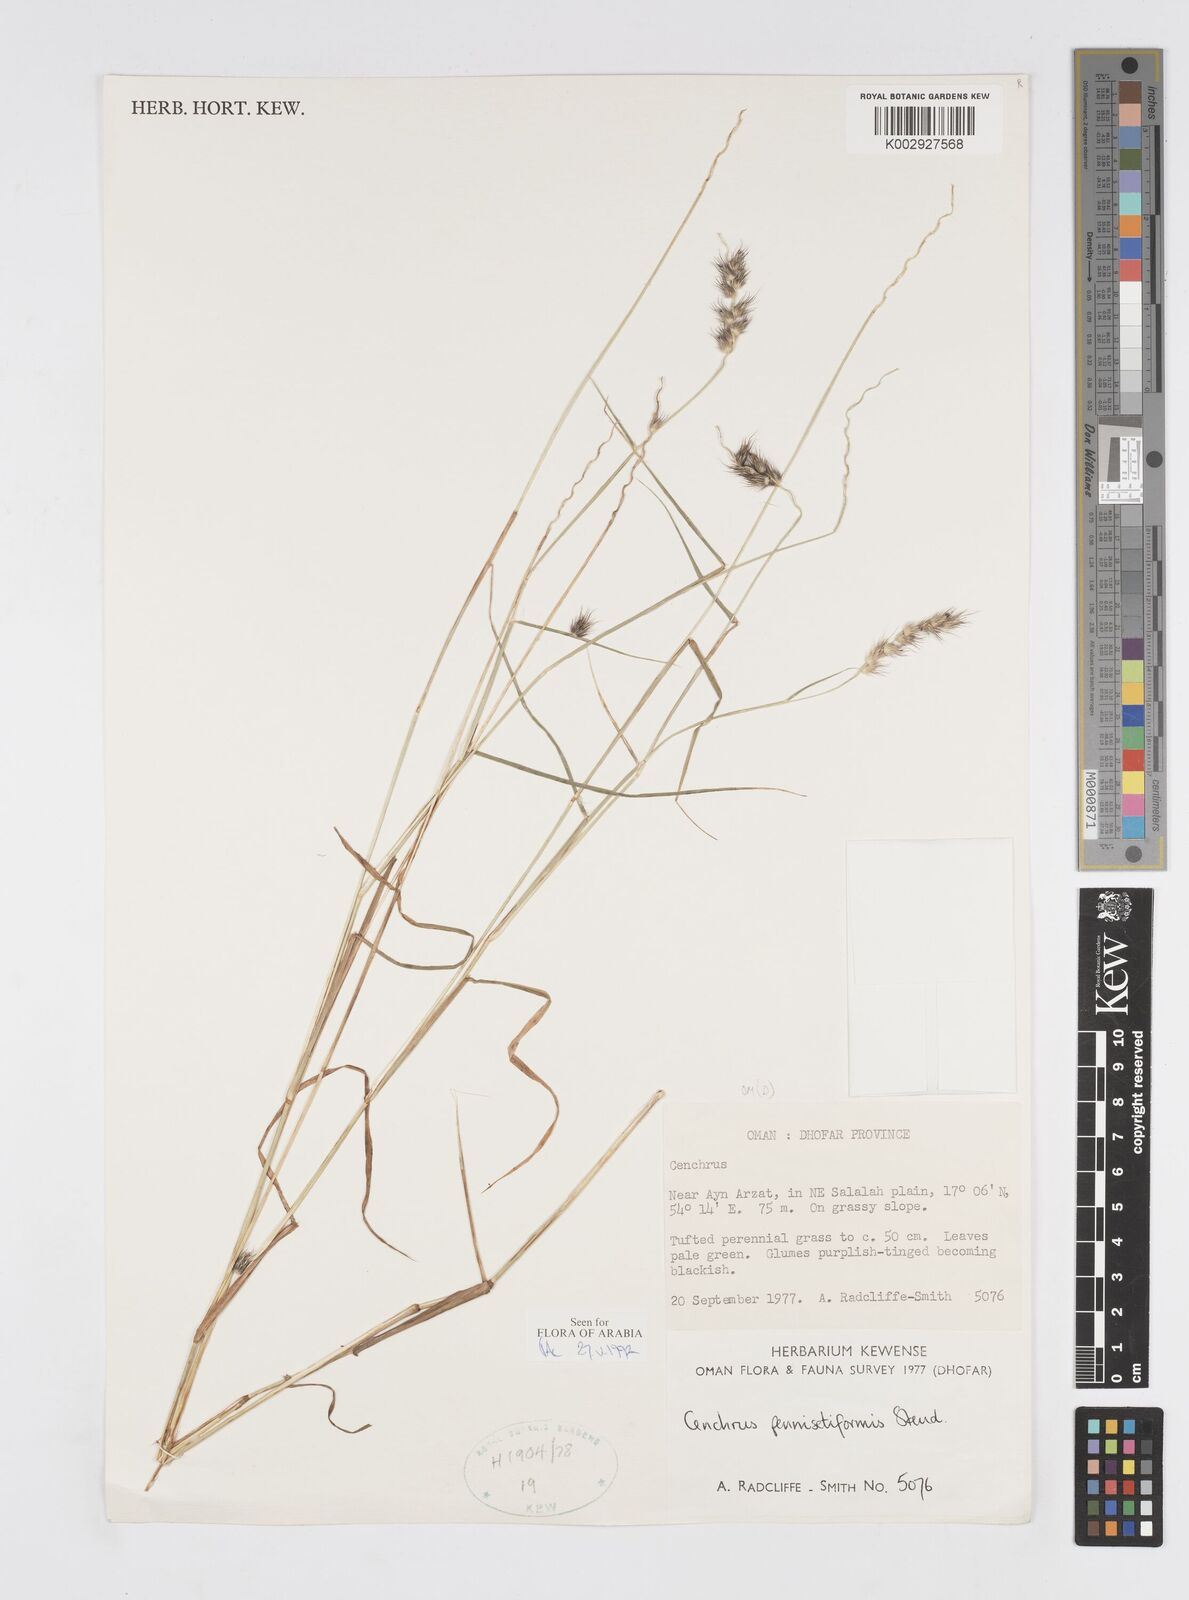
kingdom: Plantae
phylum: Tracheophyta
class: Liliopsida
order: Poales
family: Poaceae
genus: Cenchrus
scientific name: Cenchrus pennisetiformis
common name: Cloncurry
